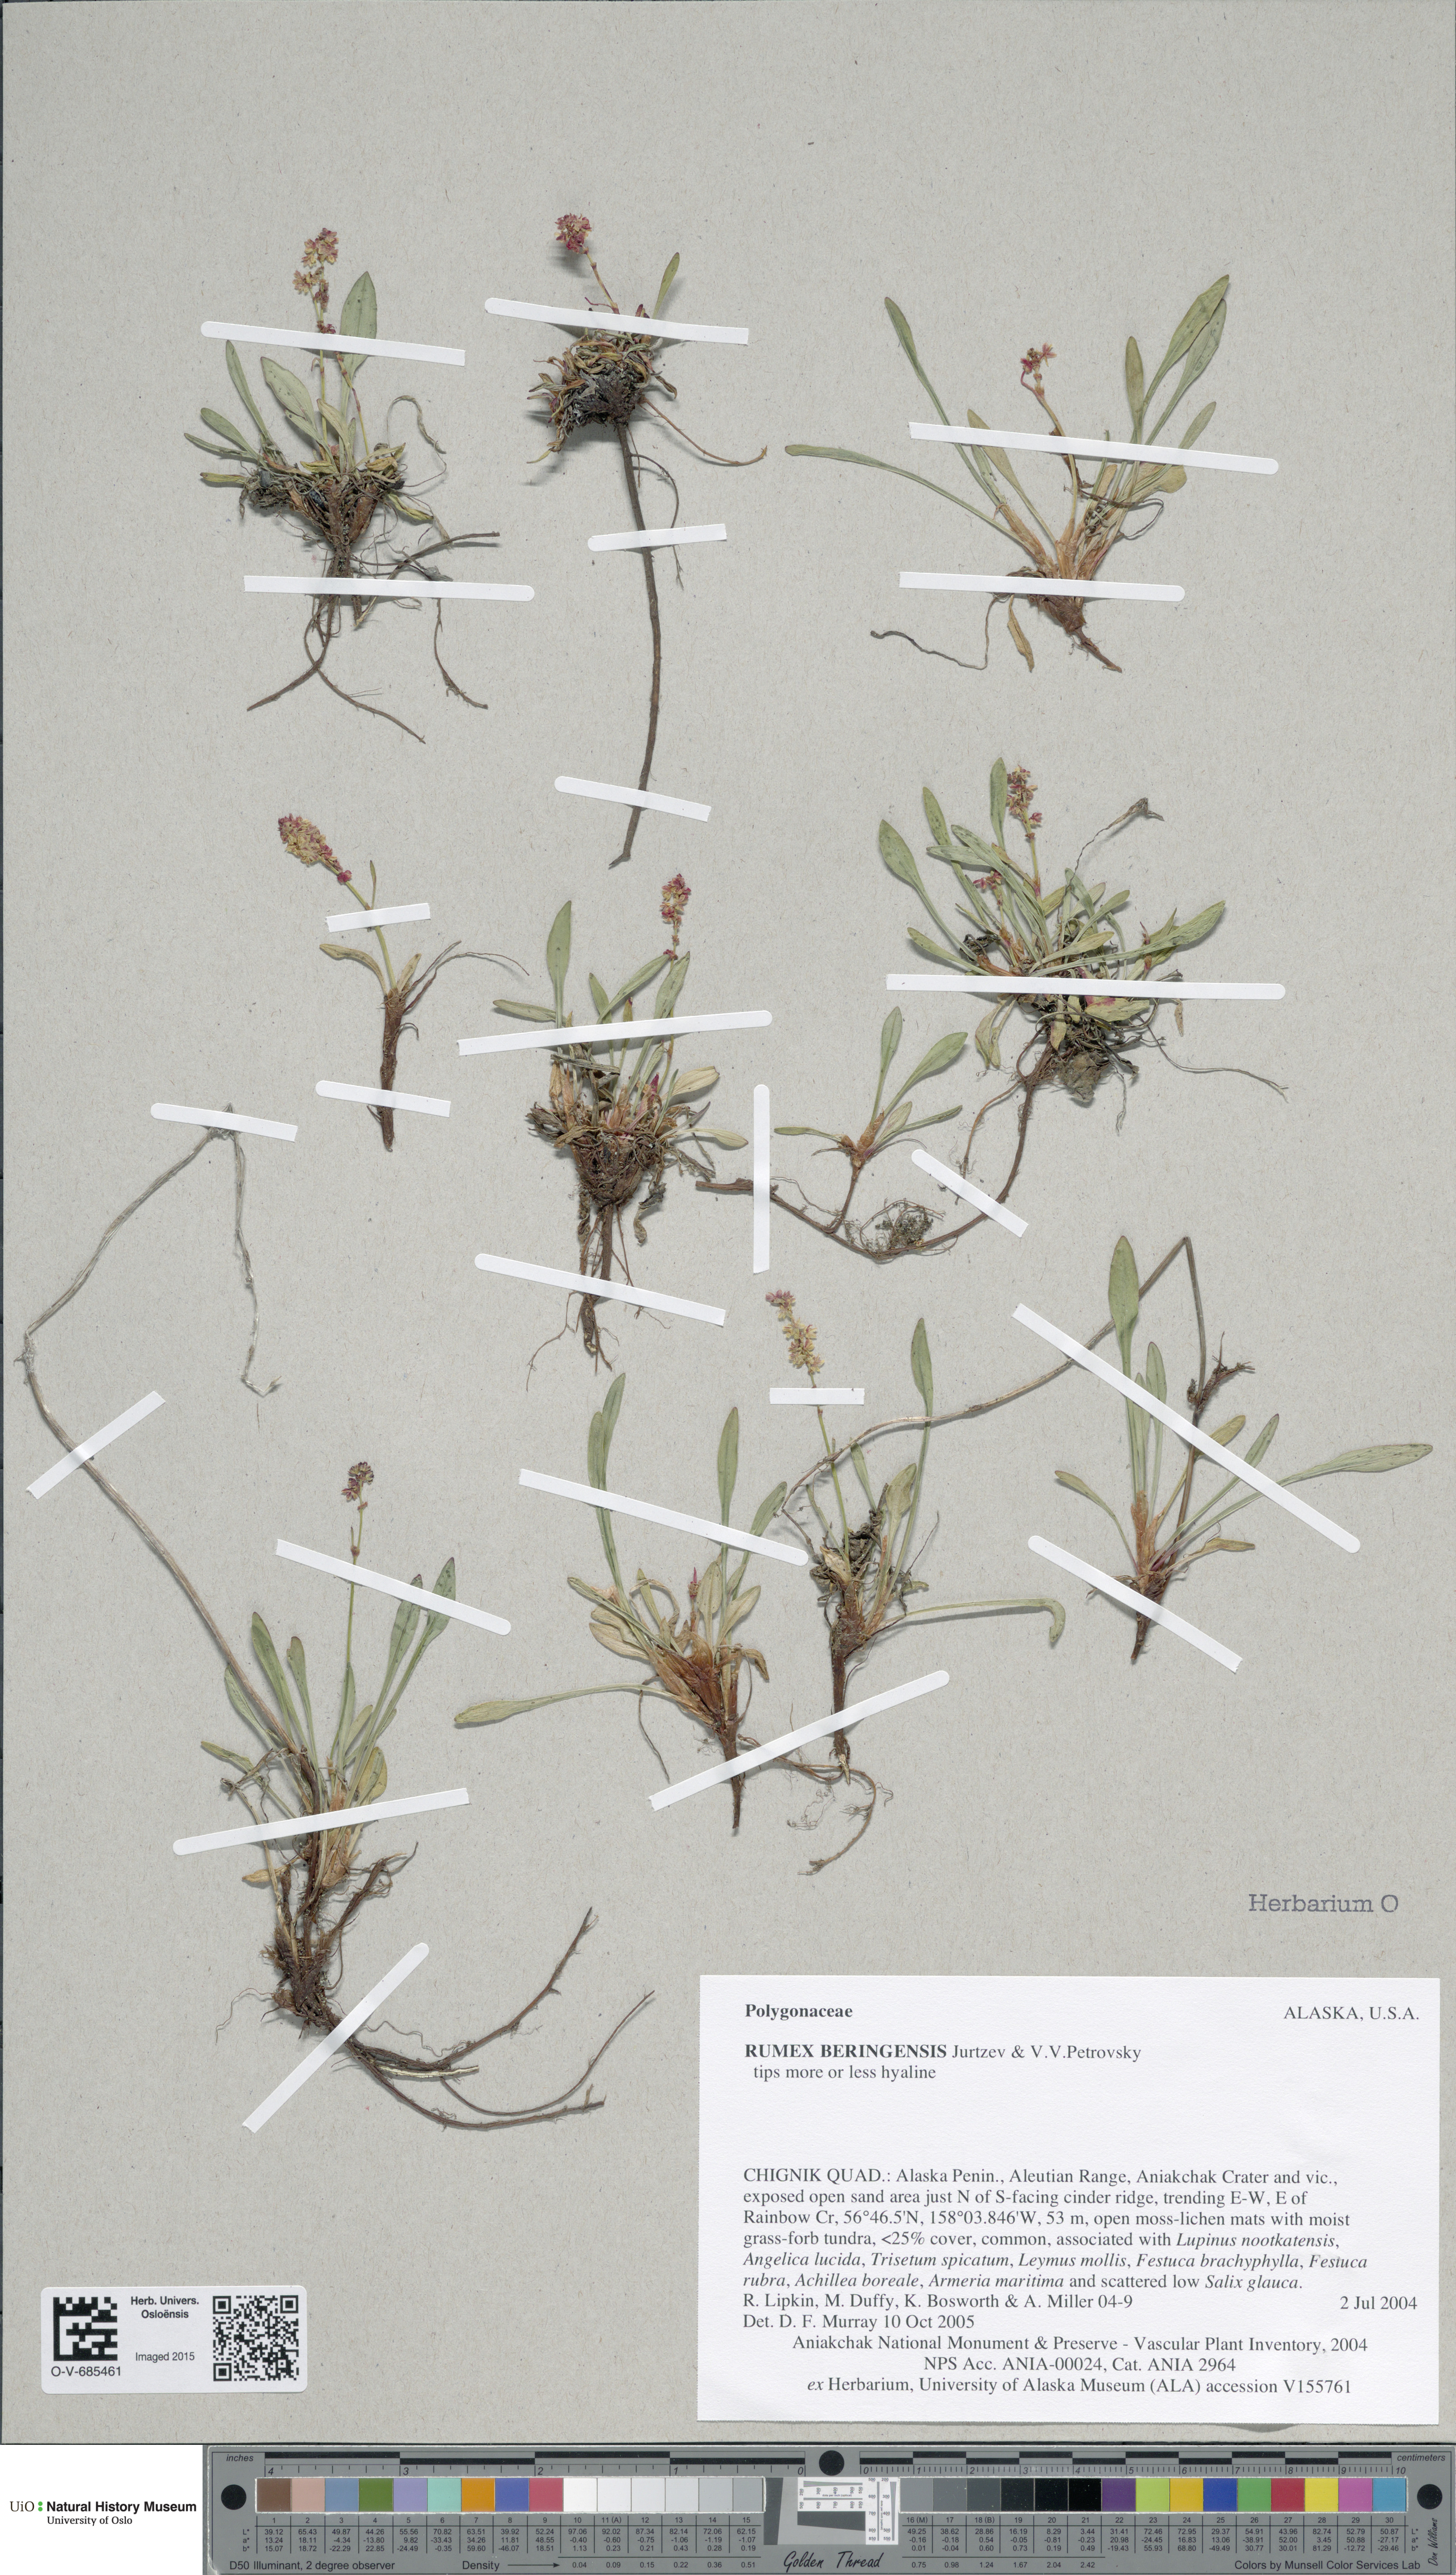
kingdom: Plantae
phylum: Tracheophyta
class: Magnoliopsida
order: Caryophyllales
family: Polygonaceae
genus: Rumex
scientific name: Rumex beringensis
